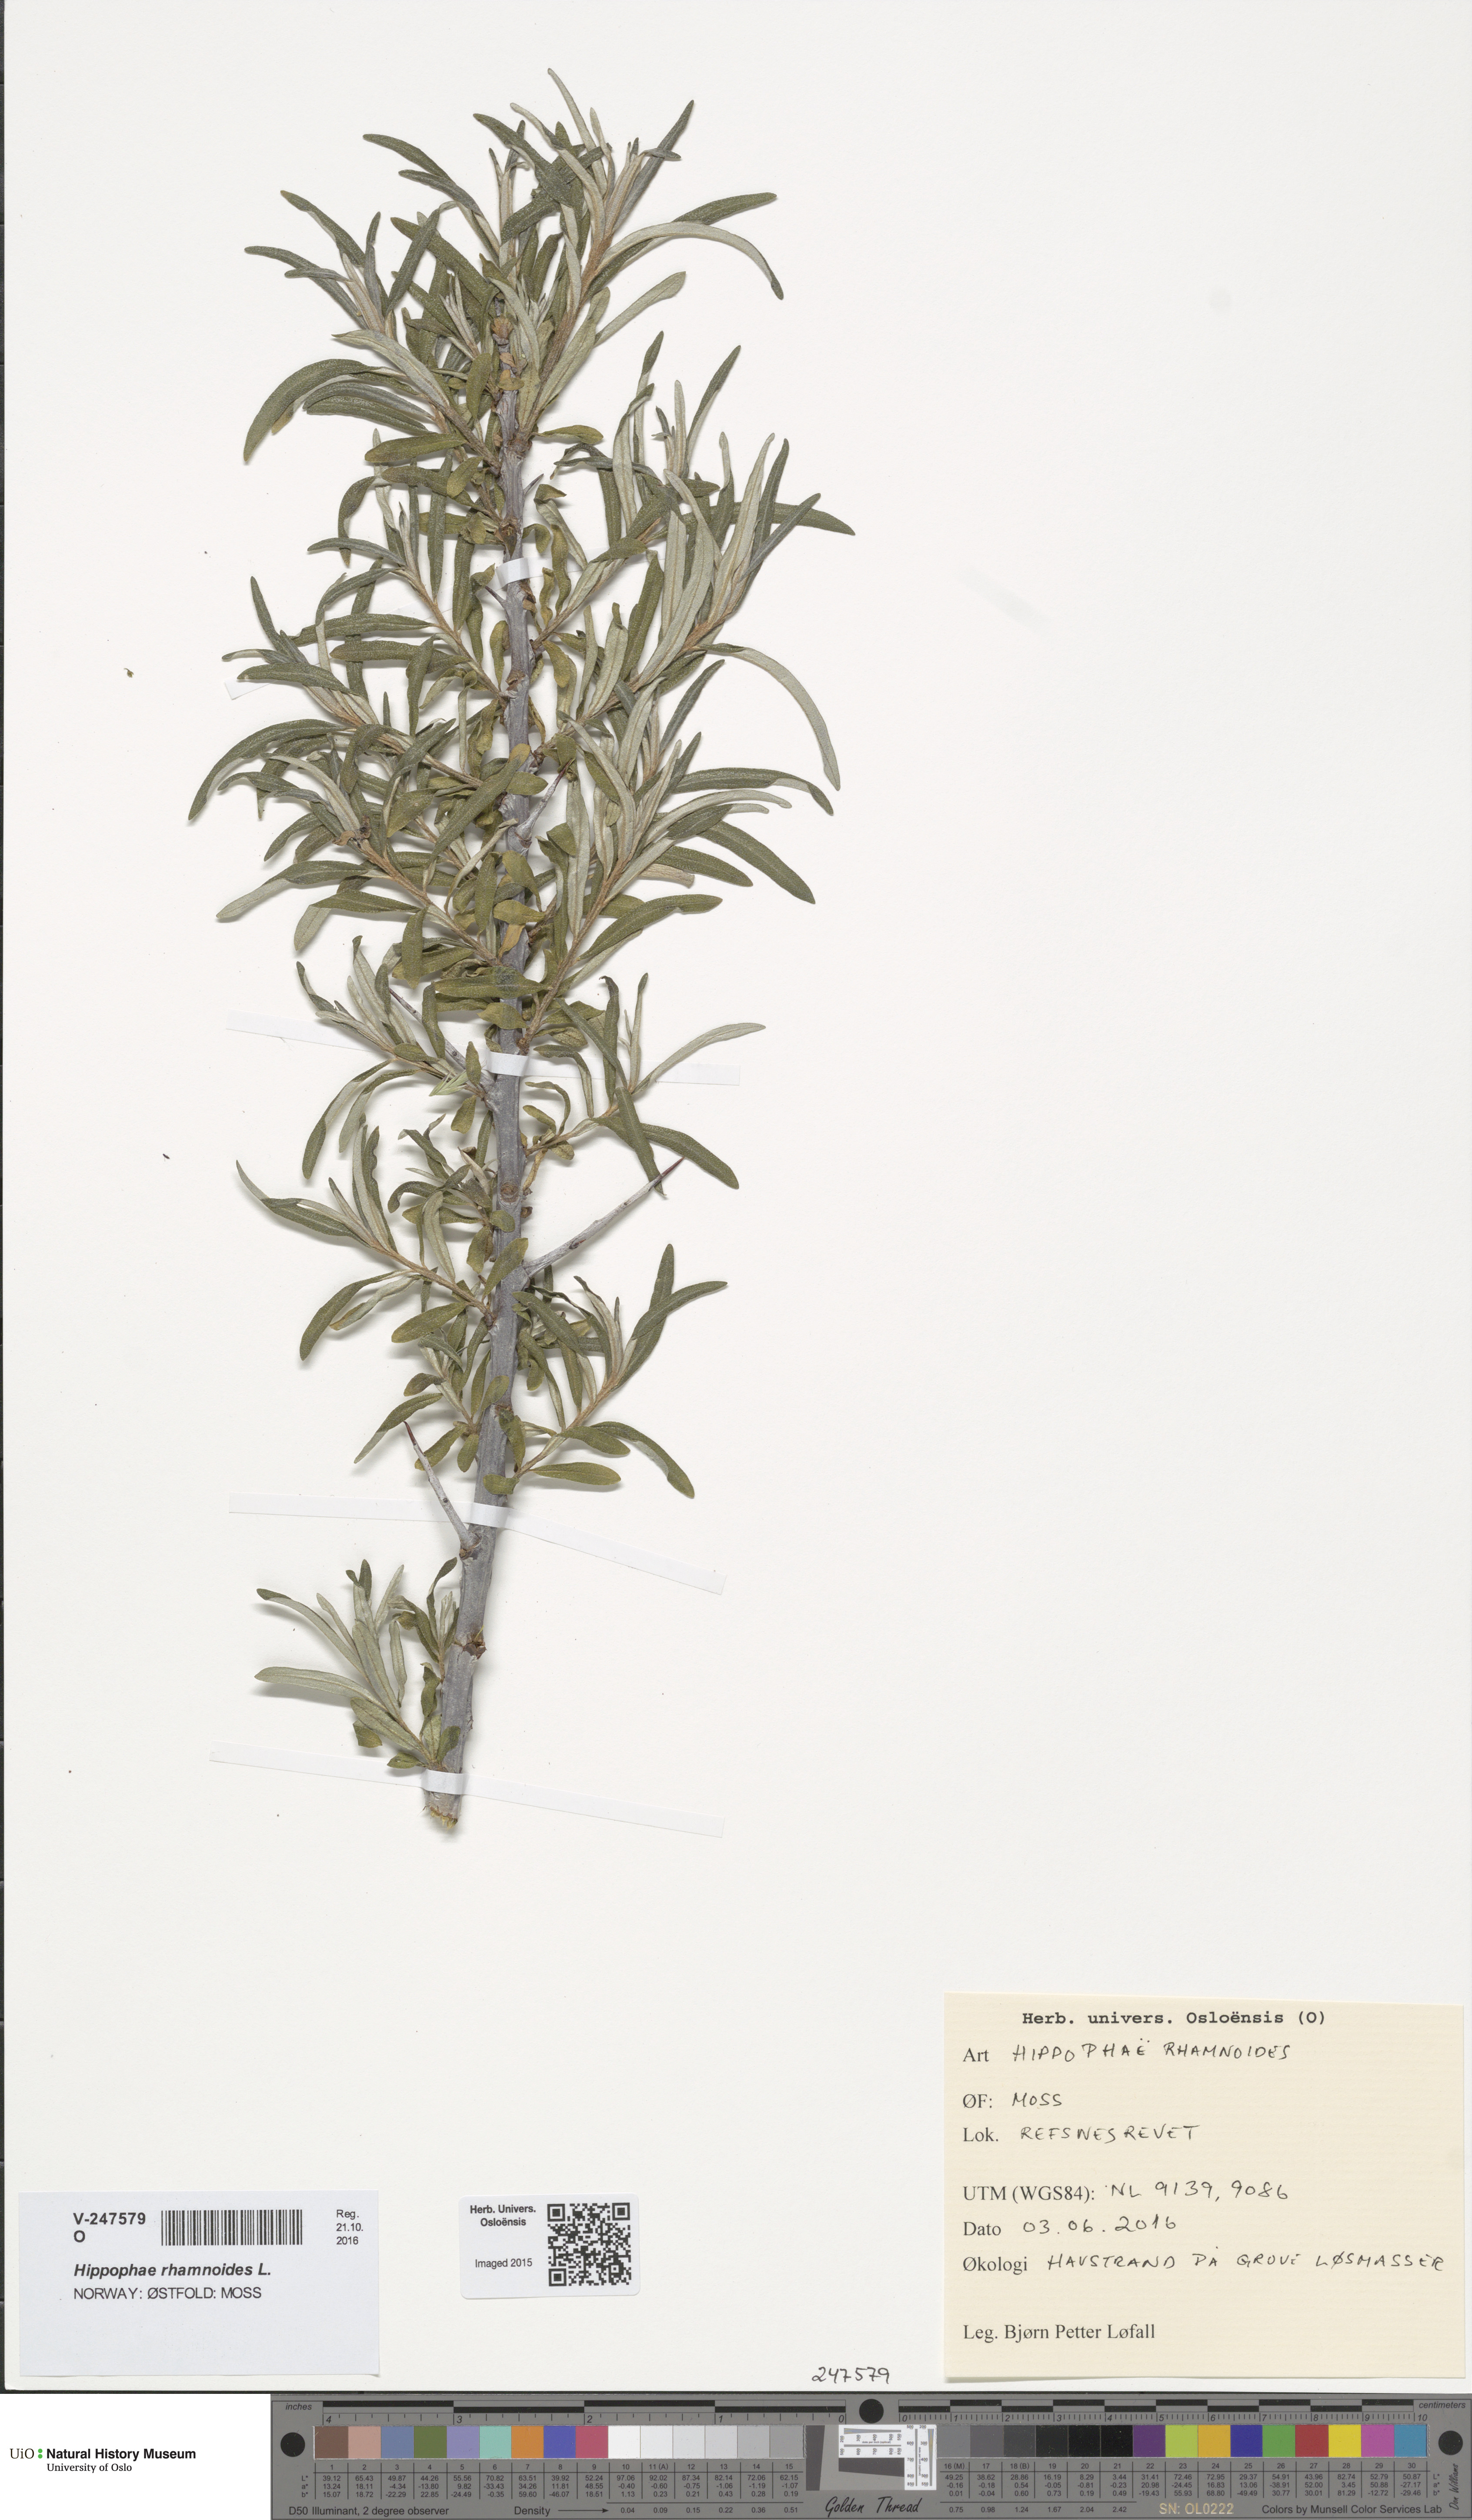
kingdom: Plantae
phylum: Tracheophyta
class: Magnoliopsida
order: Rosales
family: Elaeagnaceae
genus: Hippophae
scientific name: Hippophae rhamnoides
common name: Sea-buckthorn
